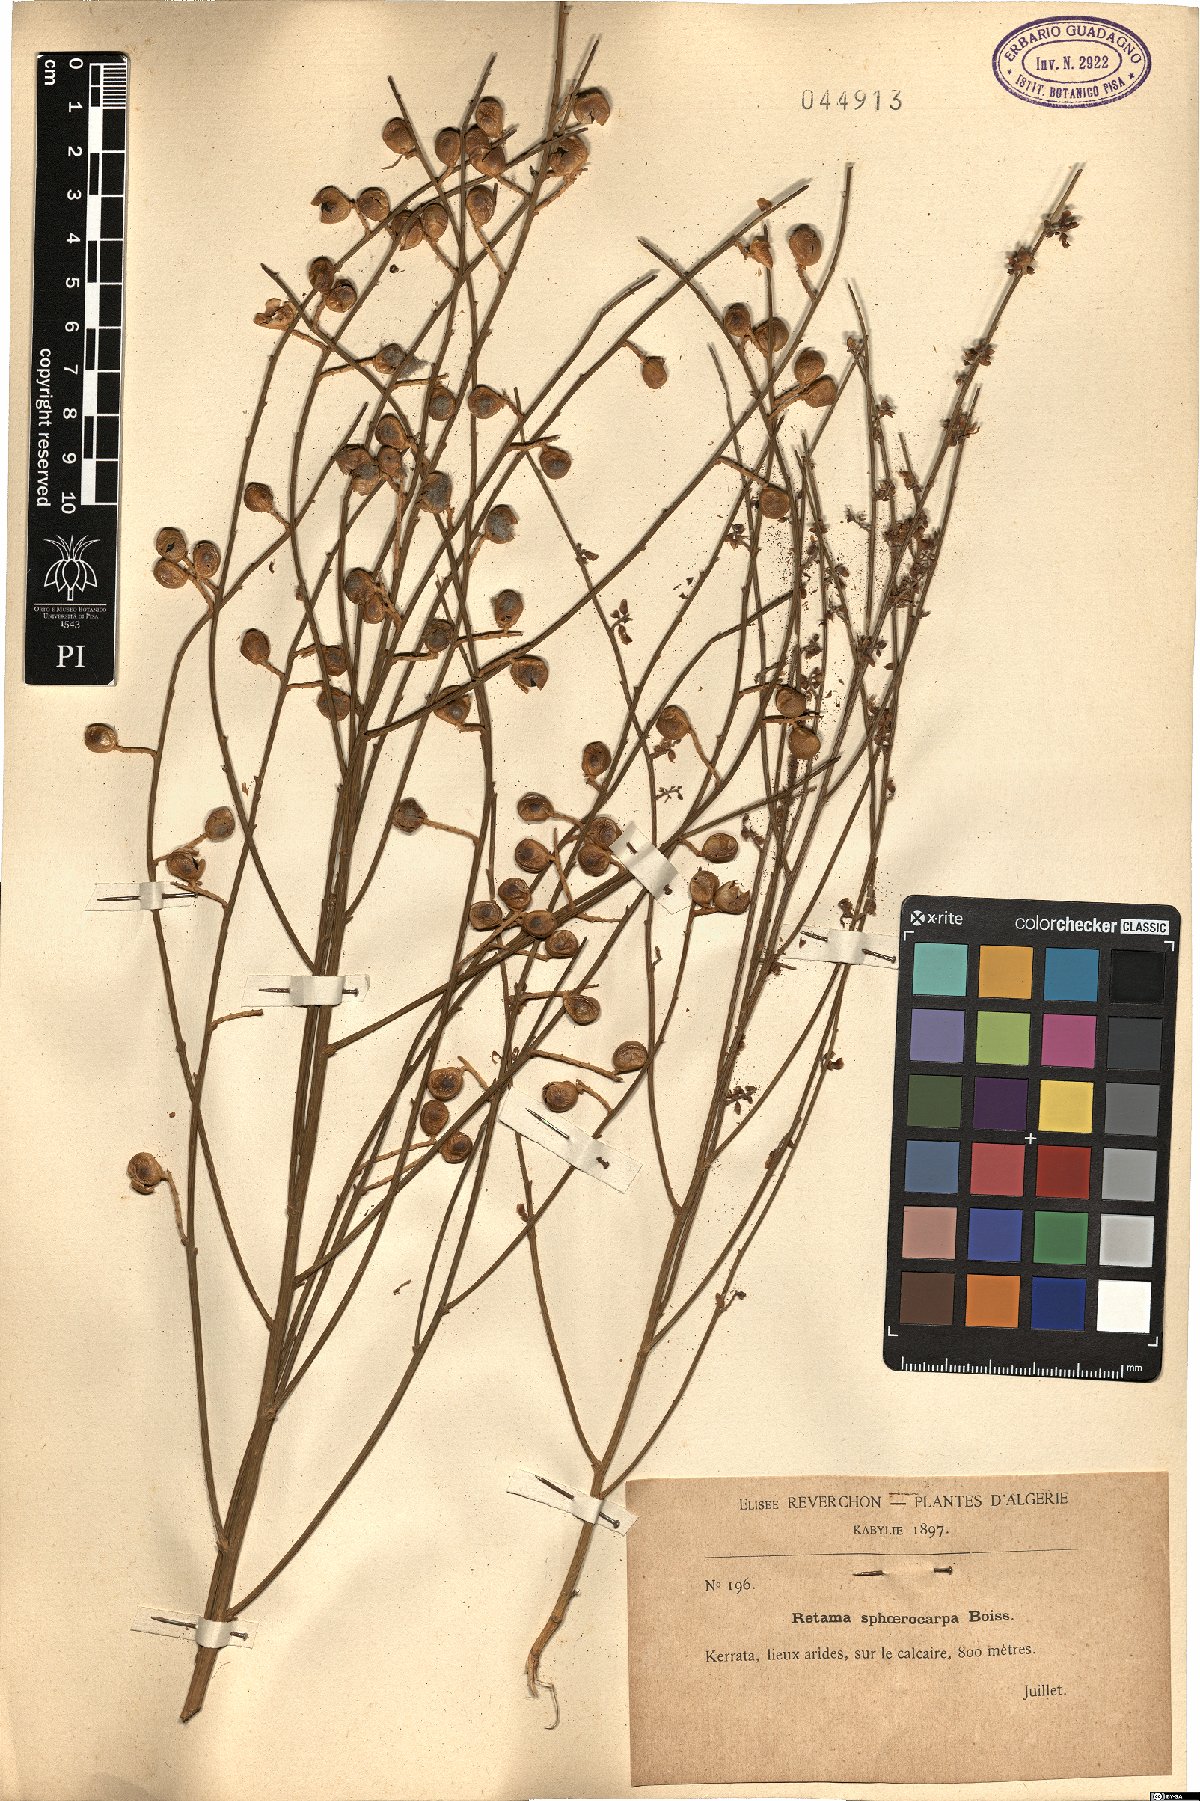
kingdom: Plantae
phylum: Tracheophyta
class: Magnoliopsida
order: Fabales
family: Fabaceae
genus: Retama
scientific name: Retama sphaerocarpa
